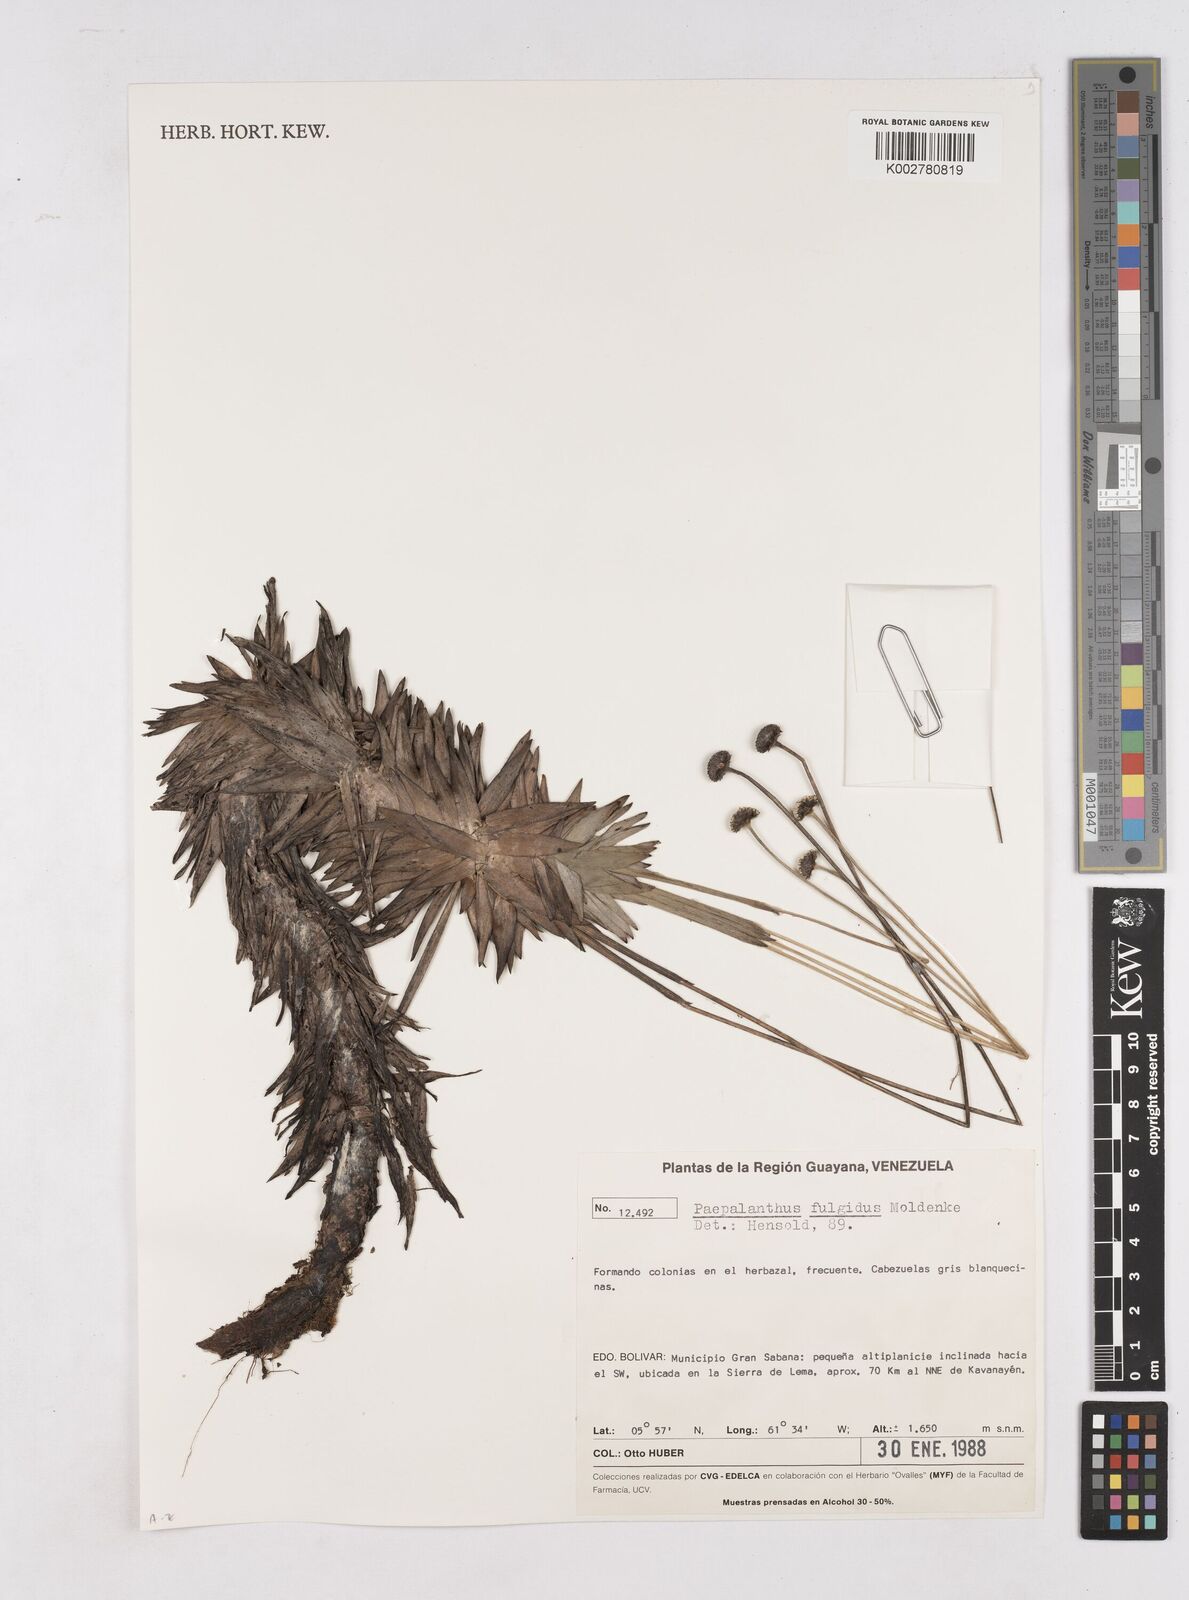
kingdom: Plantae
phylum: Tracheophyta
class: Liliopsida
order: Poales
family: Eriocaulaceae
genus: Paepalanthus
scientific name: Paepalanthus fulgidus
